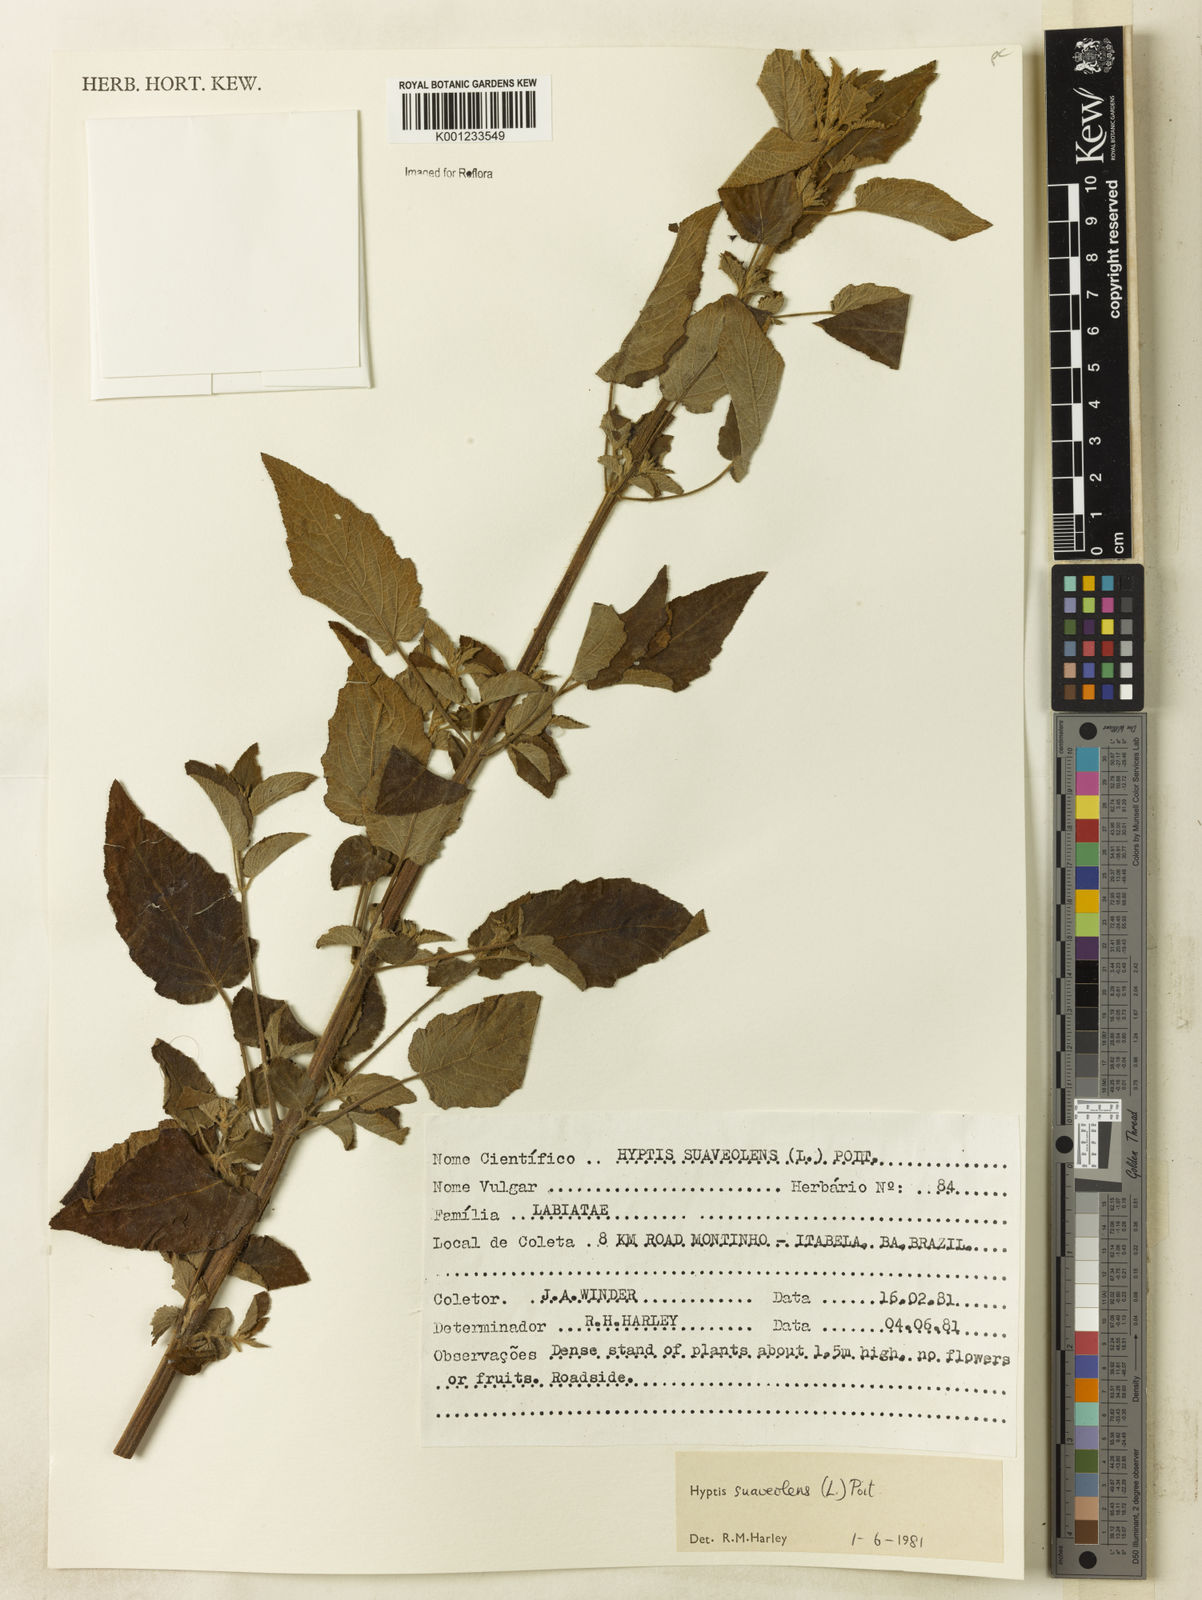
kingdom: Plantae
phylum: Tracheophyta
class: Magnoliopsida
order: Lamiales
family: Lamiaceae
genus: Mesosphaerum
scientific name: Mesosphaerum suaveolens
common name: Pignut
